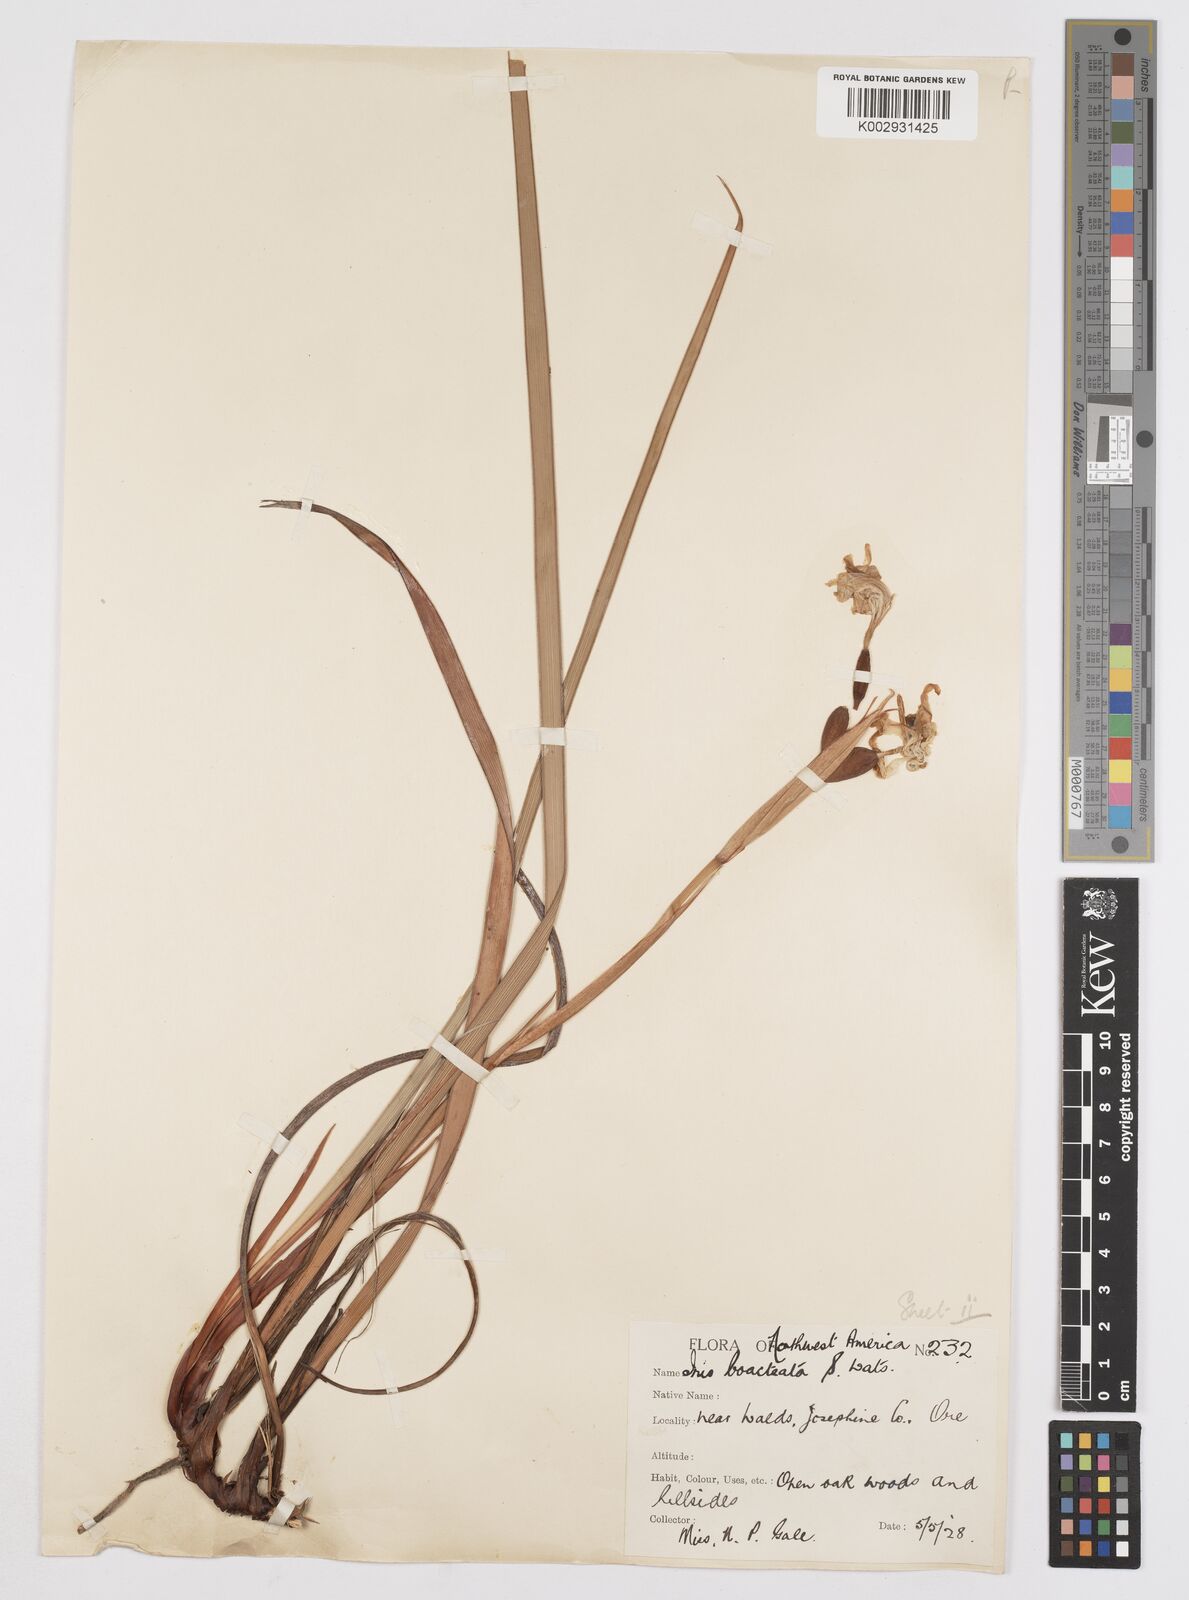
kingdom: Plantae
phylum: Tracheophyta
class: Liliopsida
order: Asparagales
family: Iridaceae
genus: Iris
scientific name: Iris bracteata
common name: Siskiyou iris
